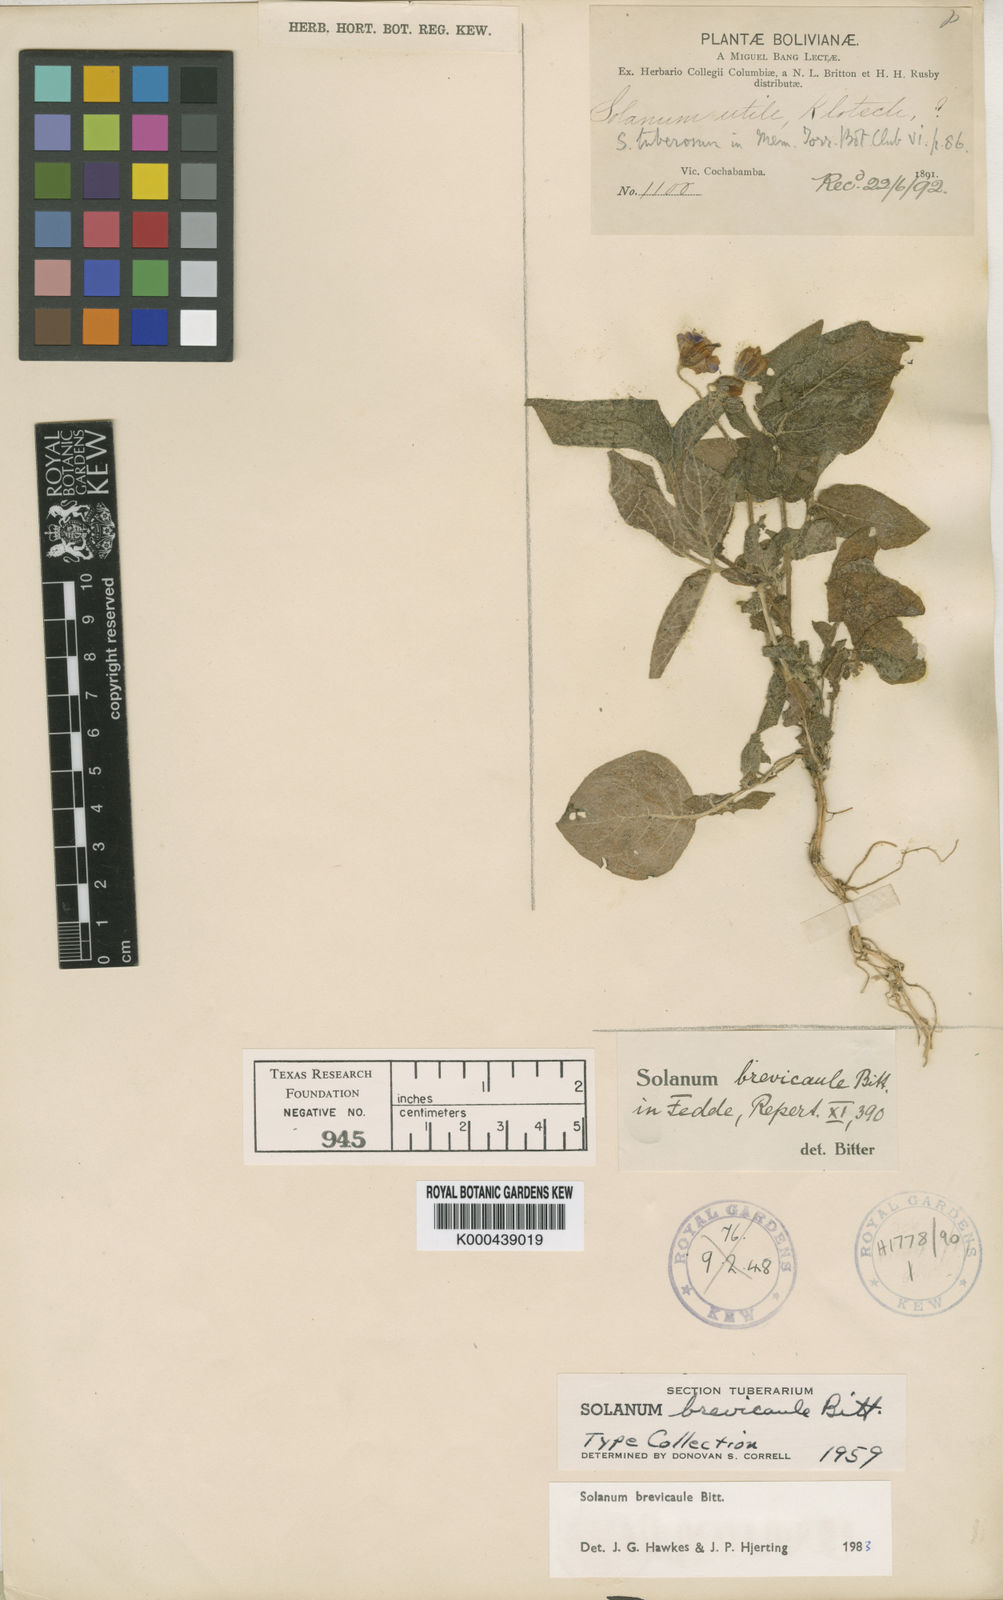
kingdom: Plantae
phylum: Tracheophyta
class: Magnoliopsida
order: Solanales
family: Solanaceae
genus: Solanum
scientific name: Solanum brevicaule
